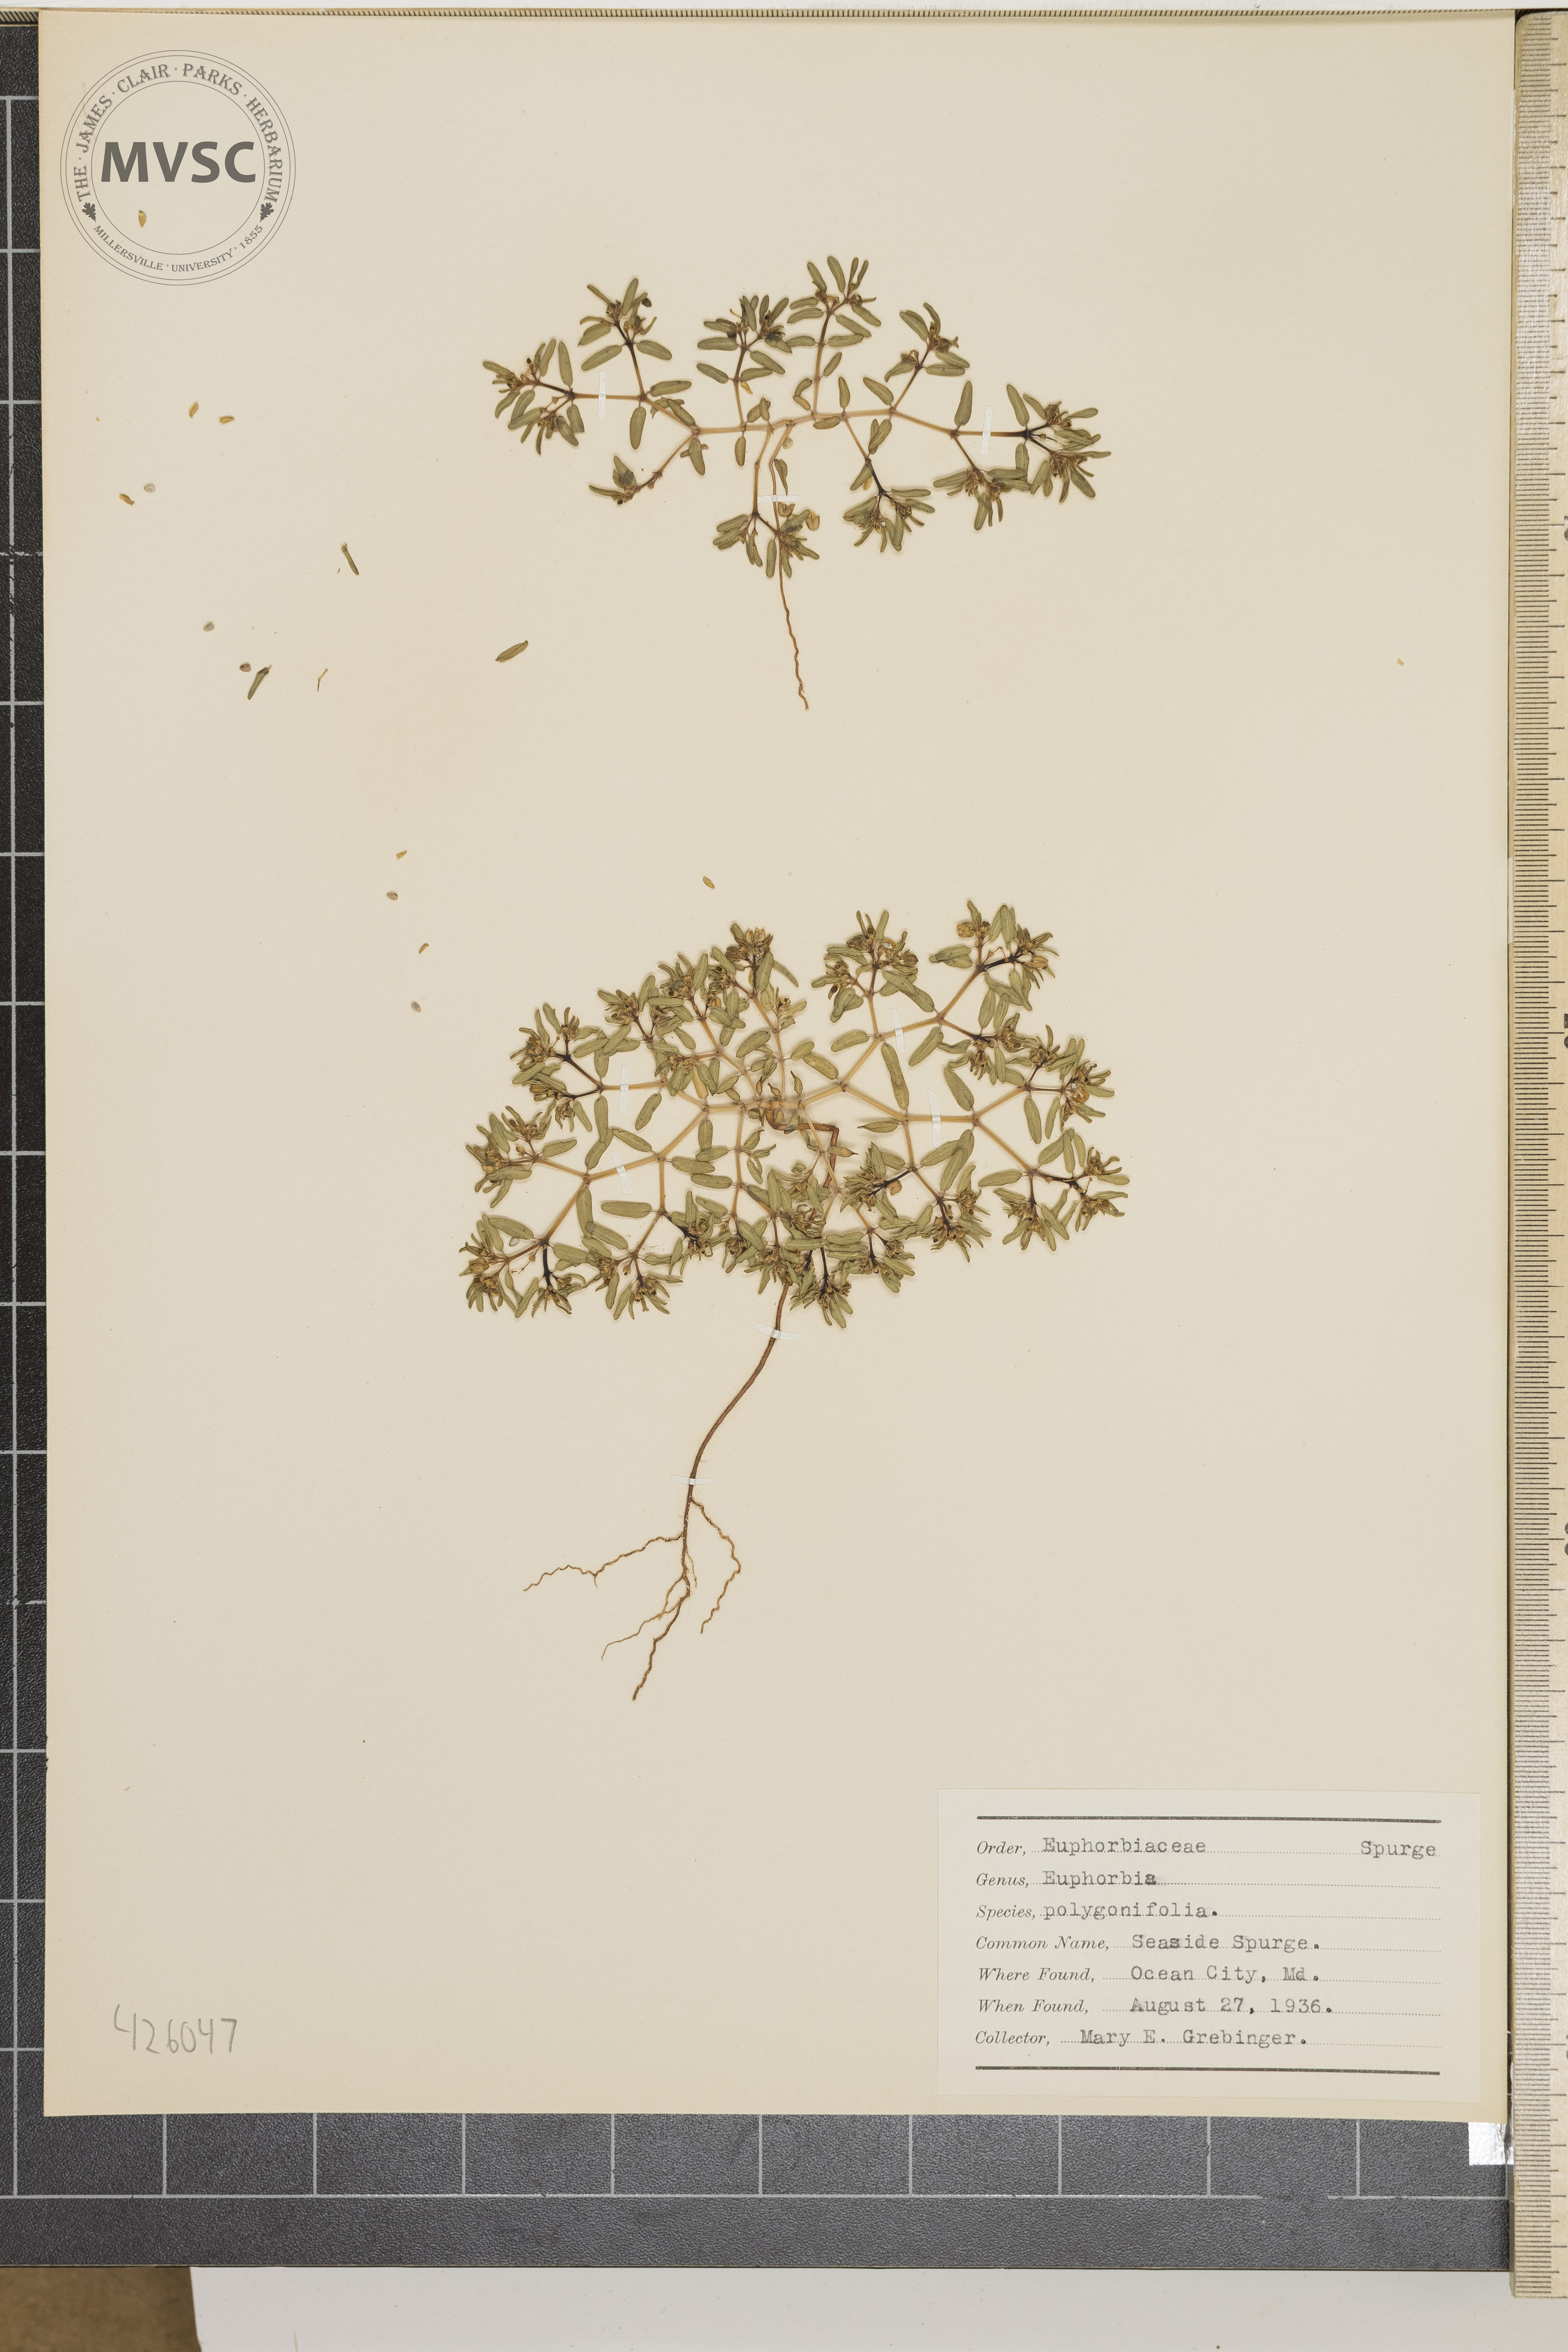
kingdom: Plantae
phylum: Tracheophyta
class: Magnoliopsida
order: Malpighiales
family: Euphorbiaceae
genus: Euphorbia
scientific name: Euphorbia polygonifolia
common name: Seaside spurge
